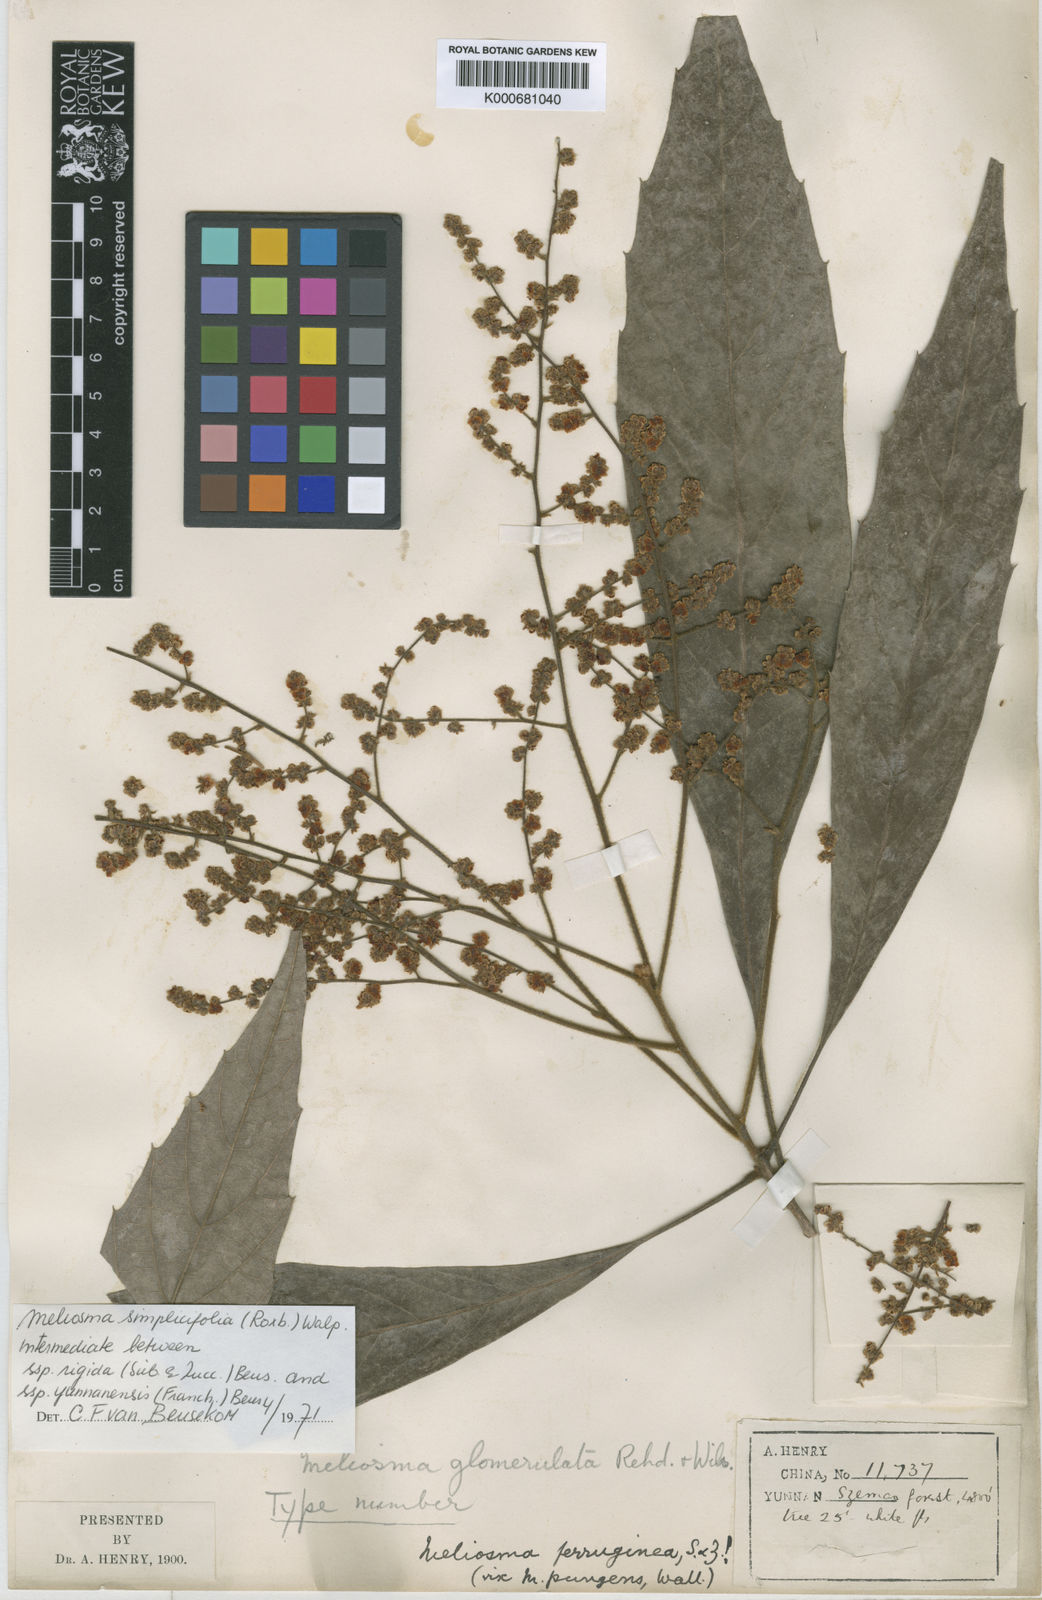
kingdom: Plantae
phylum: Tracheophyta
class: Magnoliopsida
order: Proteales
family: Sabiaceae
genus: Meliosma
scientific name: Meliosma yunnanensis
